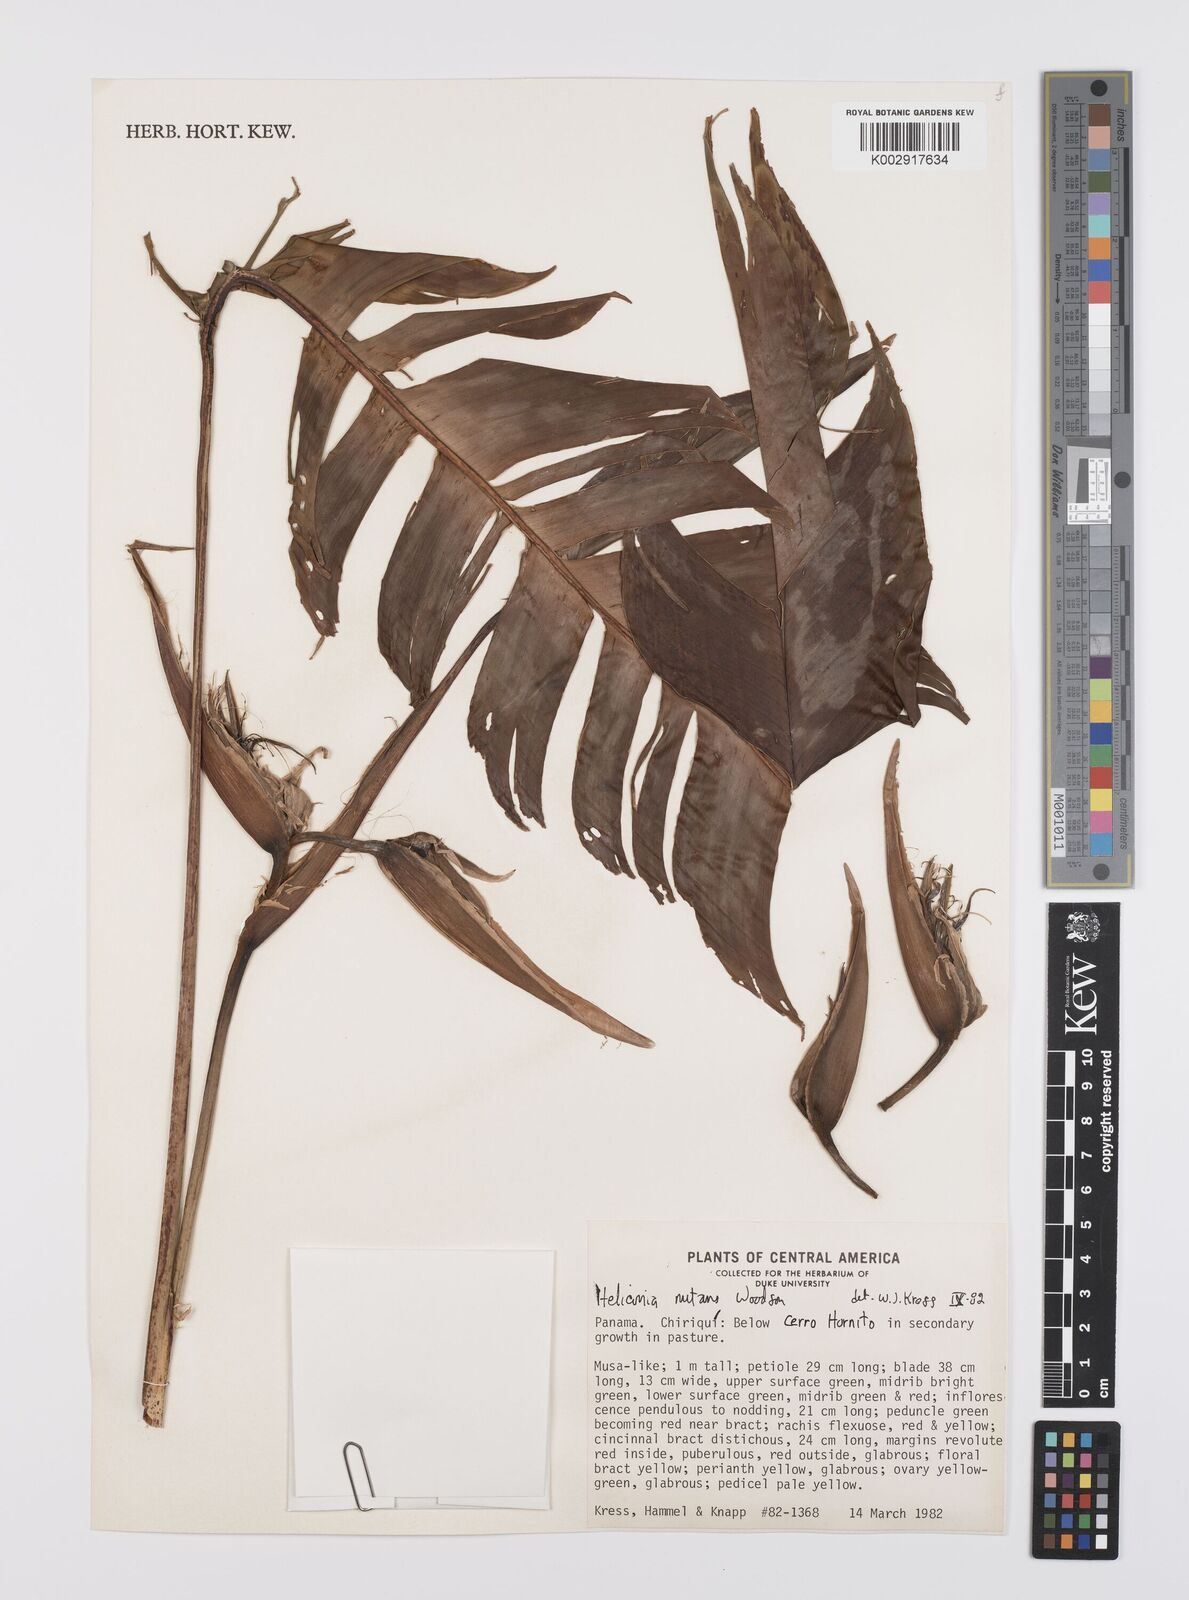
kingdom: Plantae
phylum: Tracheophyta
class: Liliopsida
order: Zingiberales
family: Heliconiaceae
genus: Heliconia
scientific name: Heliconia nutans
